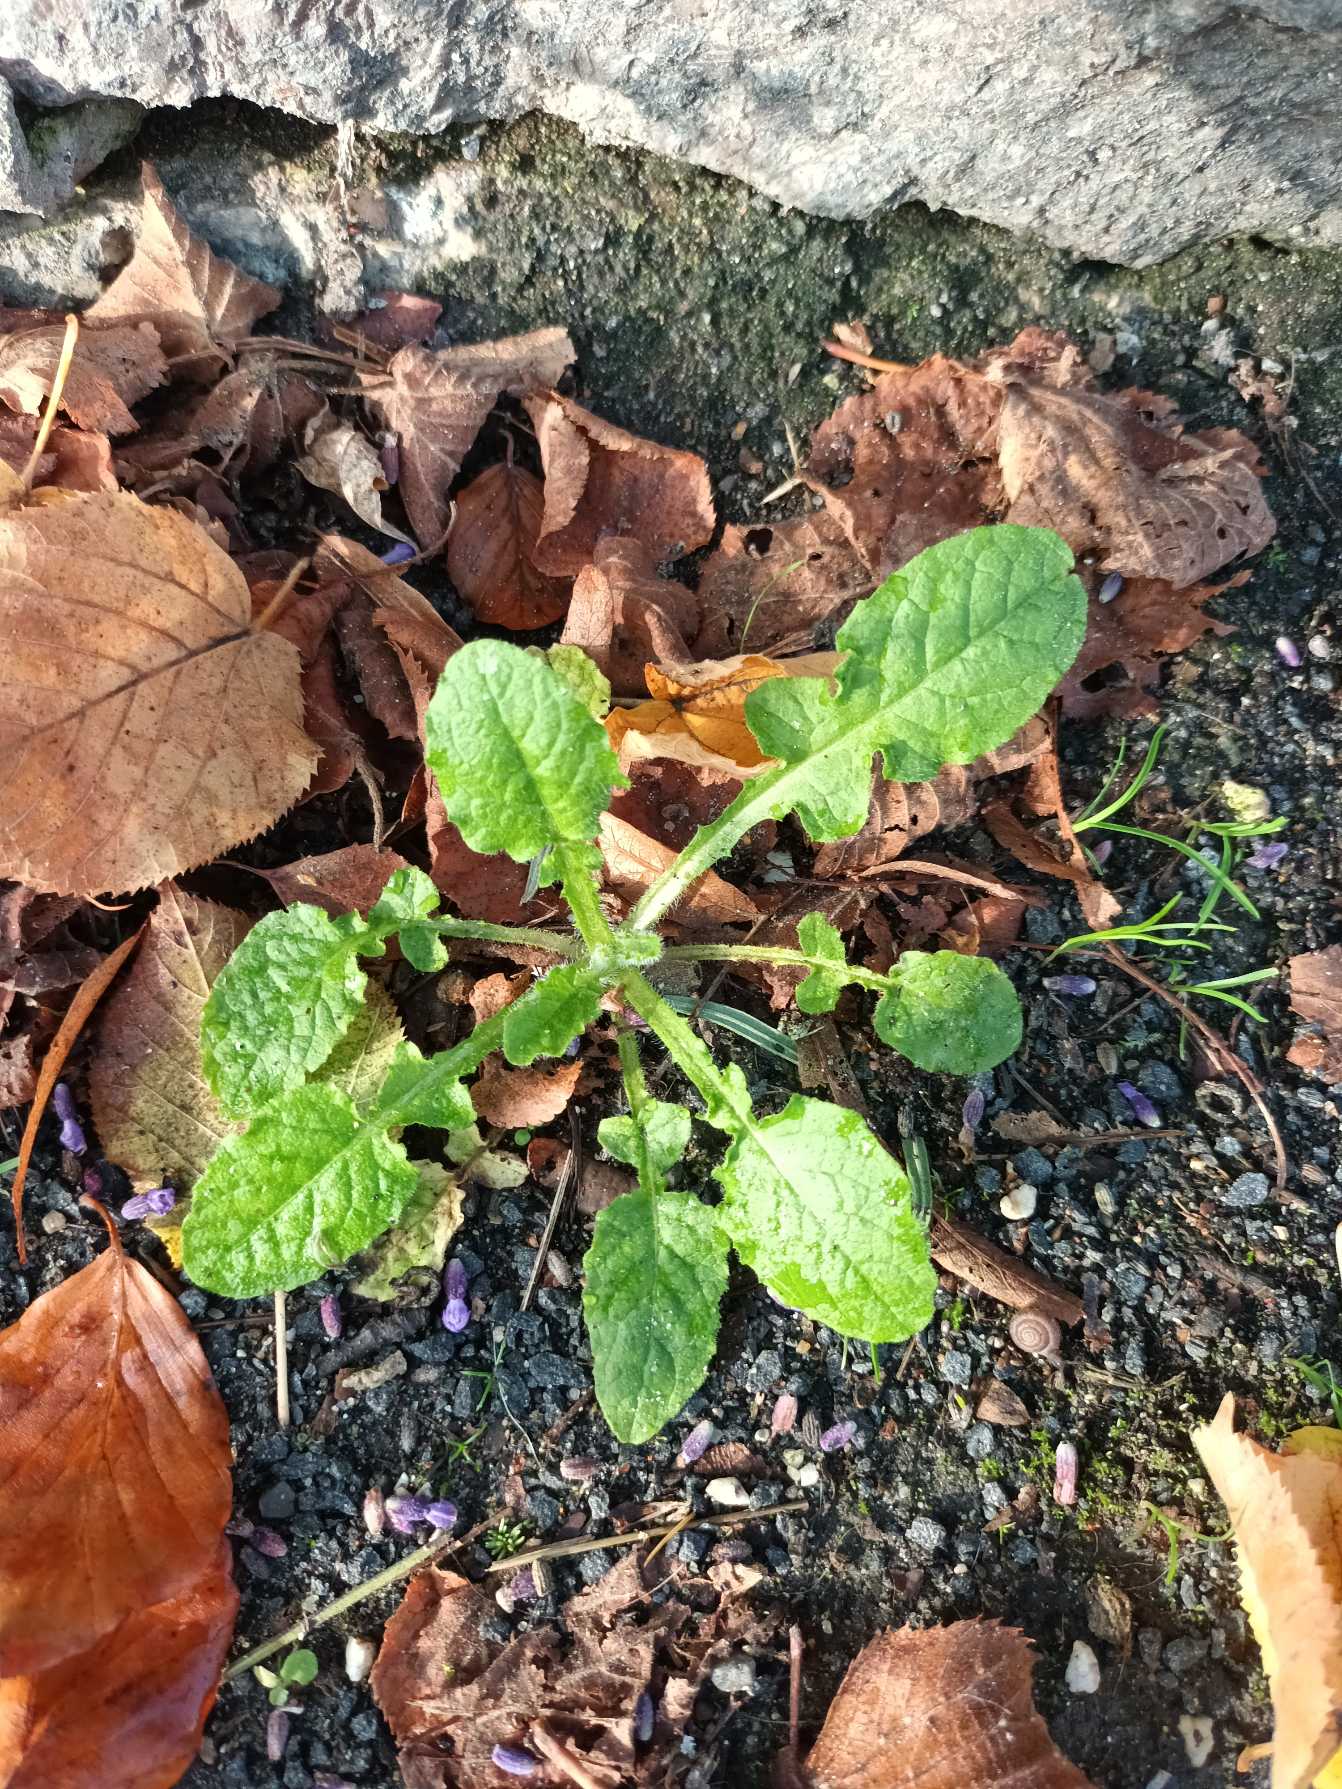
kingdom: Plantae
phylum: Tracheophyta
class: Magnoliopsida
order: Asterales
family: Asteraceae
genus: Lapsana
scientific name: Lapsana communis
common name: Haremad
